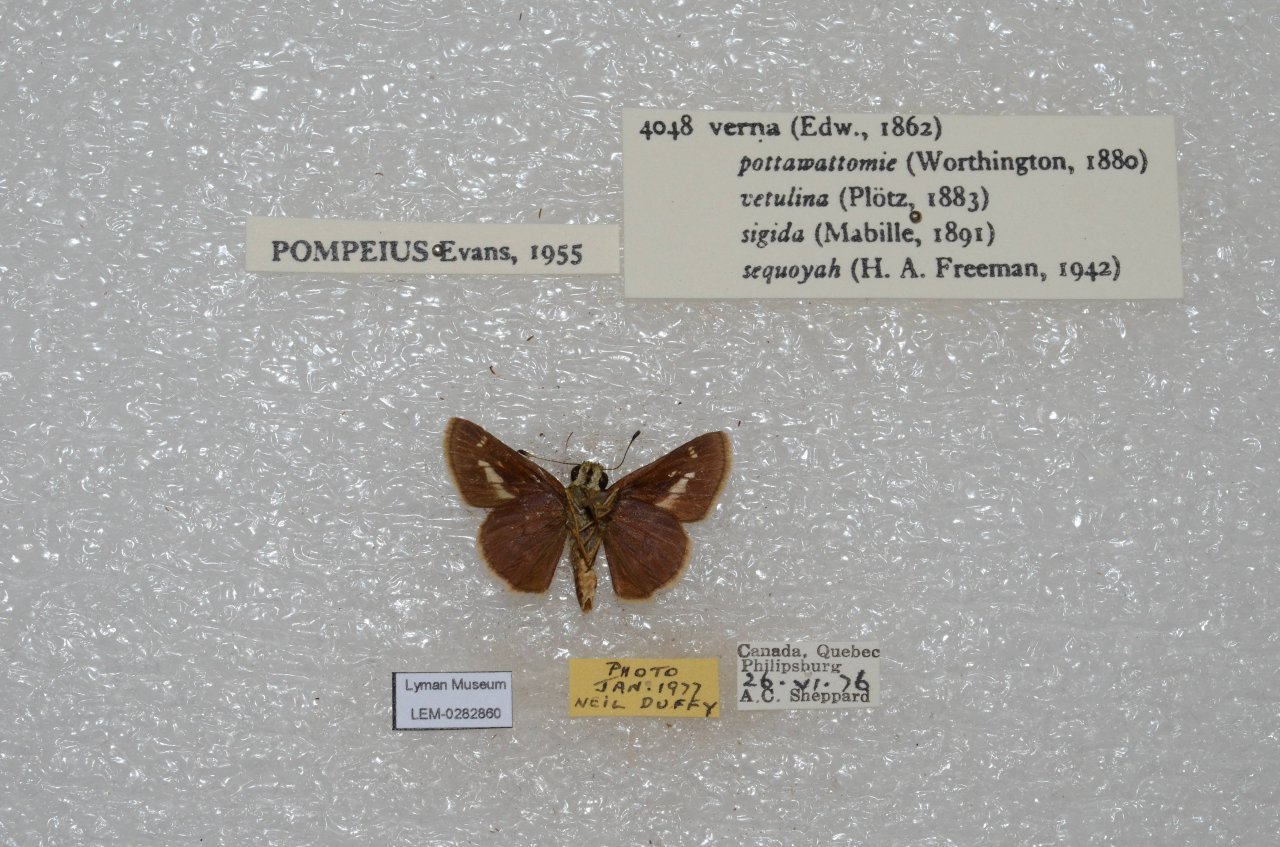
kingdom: Animalia
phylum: Arthropoda
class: Insecta
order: Lepidoptera
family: Hesperiidae
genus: Vernia
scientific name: Vernia verna
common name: Little Glassywing
